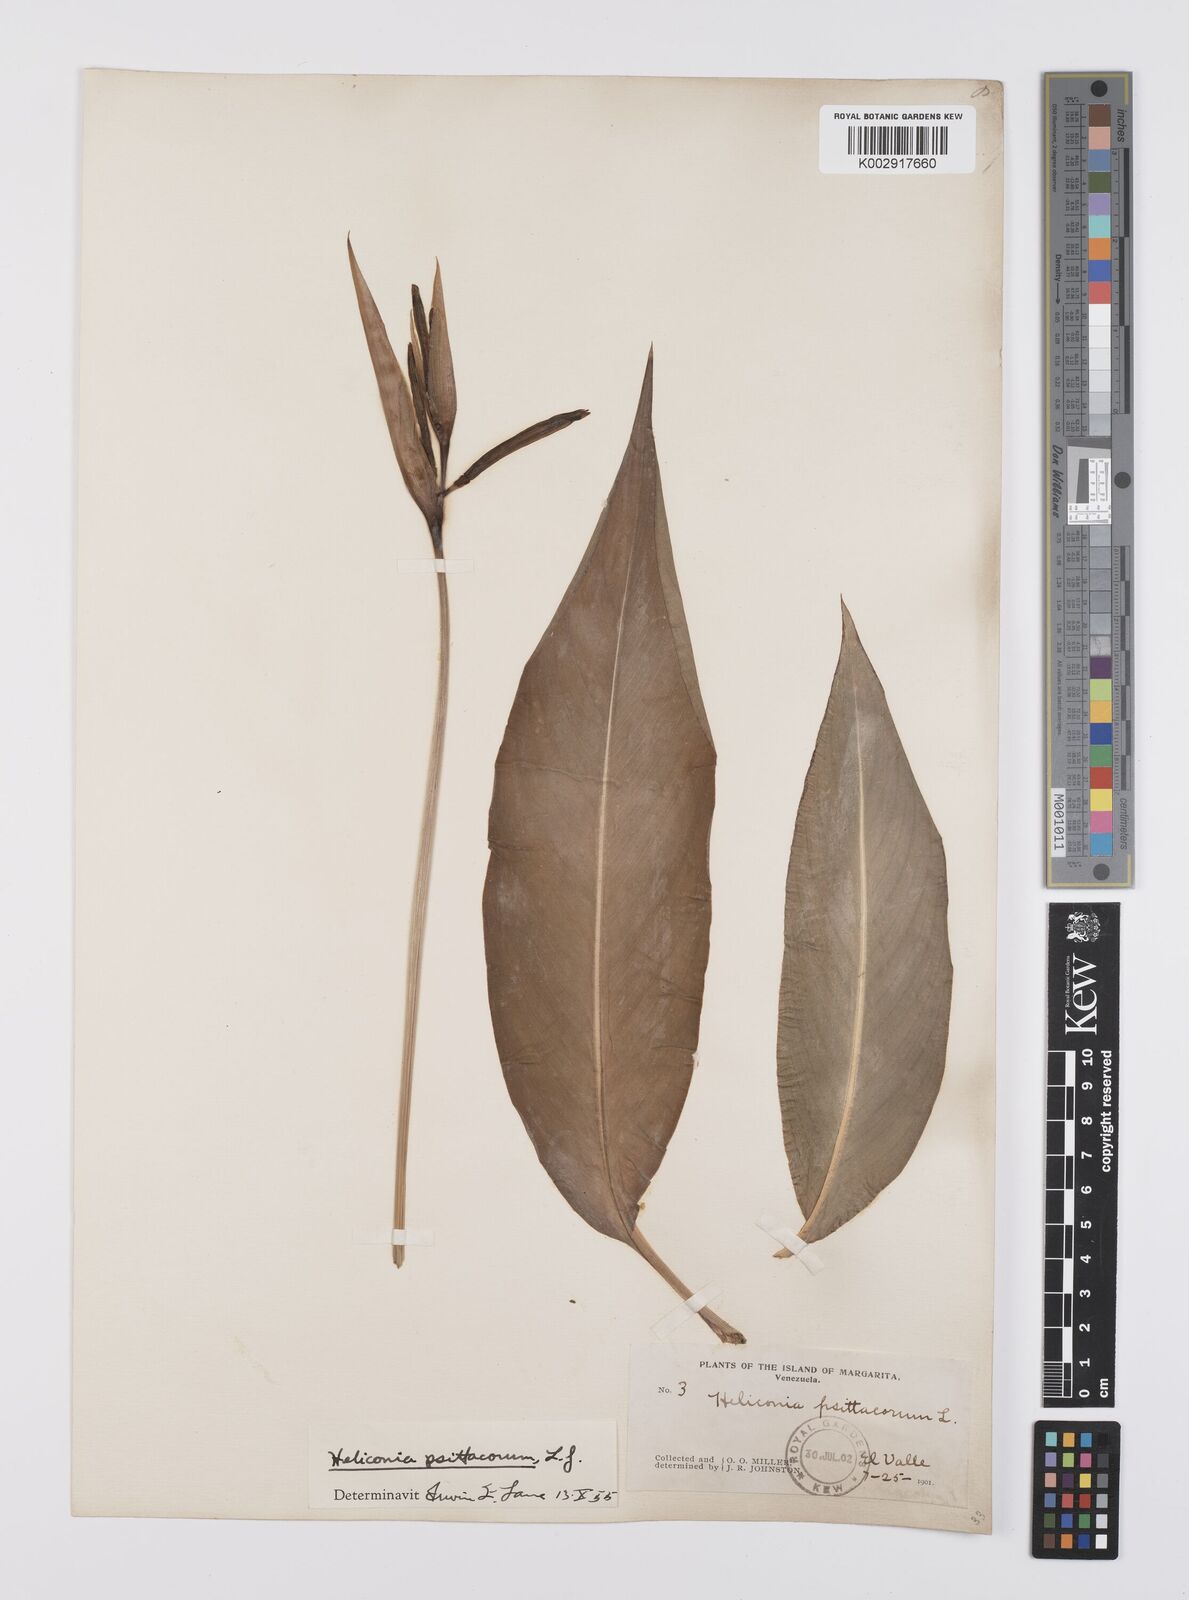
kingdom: Plantae
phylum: Tracheophyta
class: Liliopsida
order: Zingiberales
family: Heliconiaceae
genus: Heliconia
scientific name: Heliconia psittacorum
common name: Parrot's-flower
